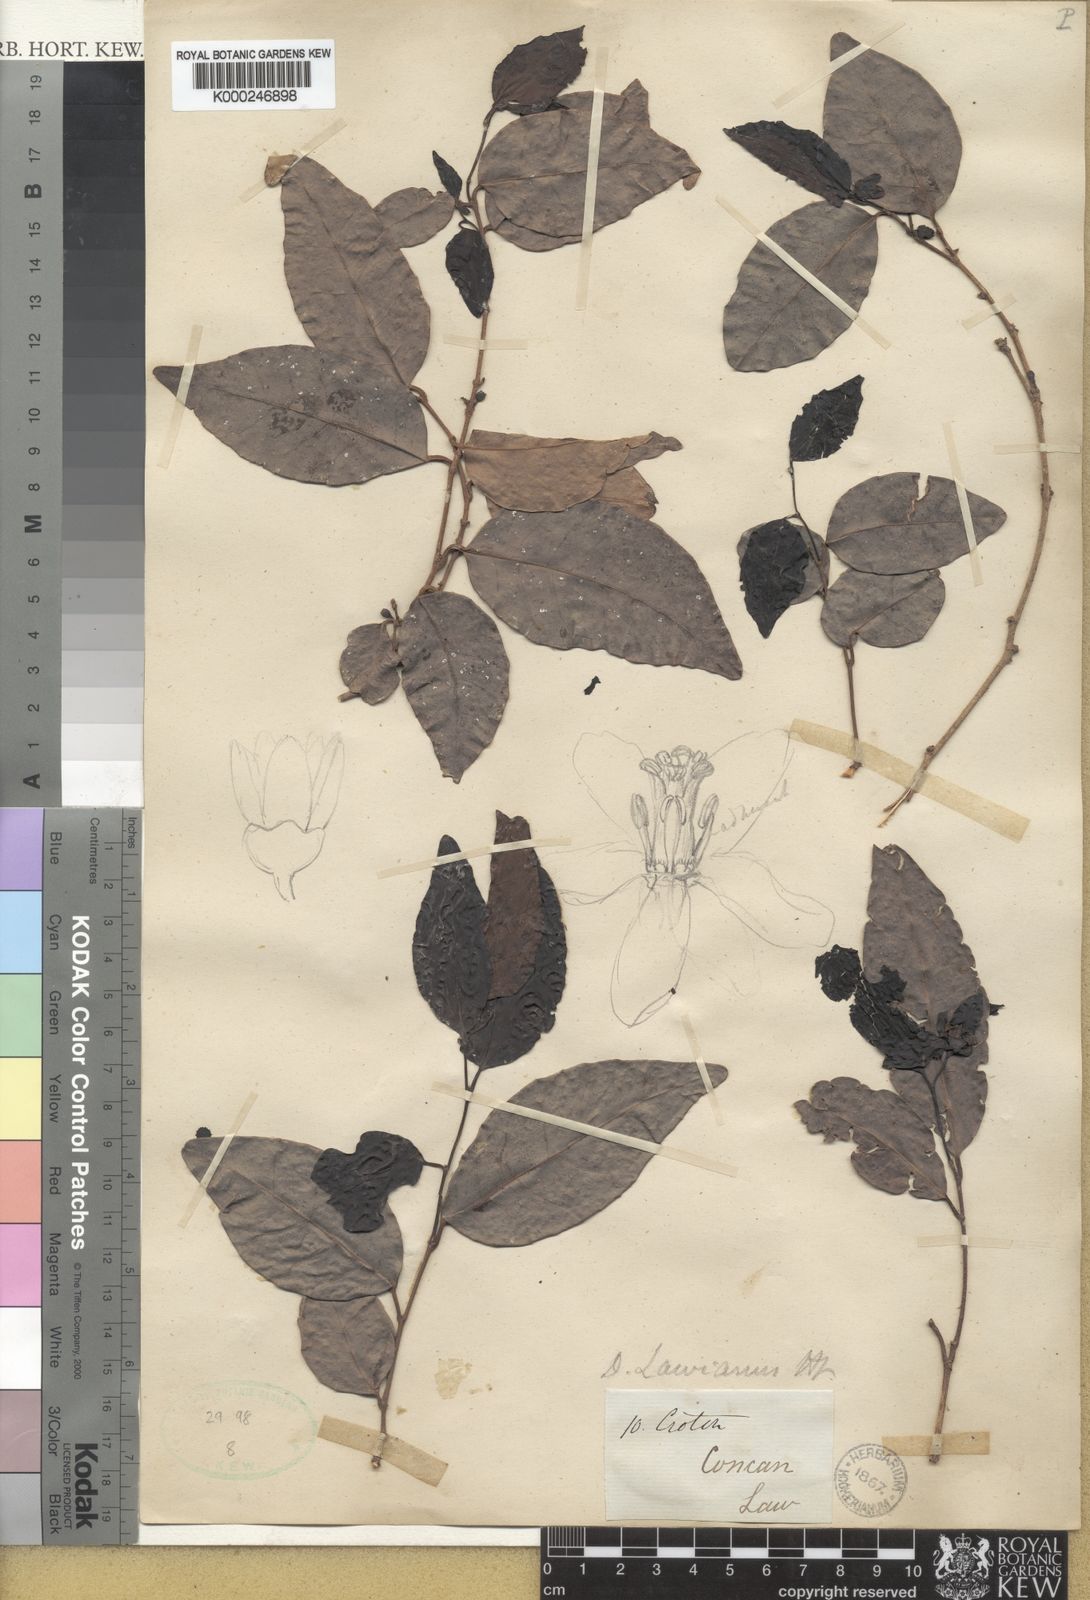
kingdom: Plantae
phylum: Tracheophyta
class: Magnoliopsida
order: Malpighiales
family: Euphorbiaceae
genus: Tritaxis
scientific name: Tritaxis glabella
